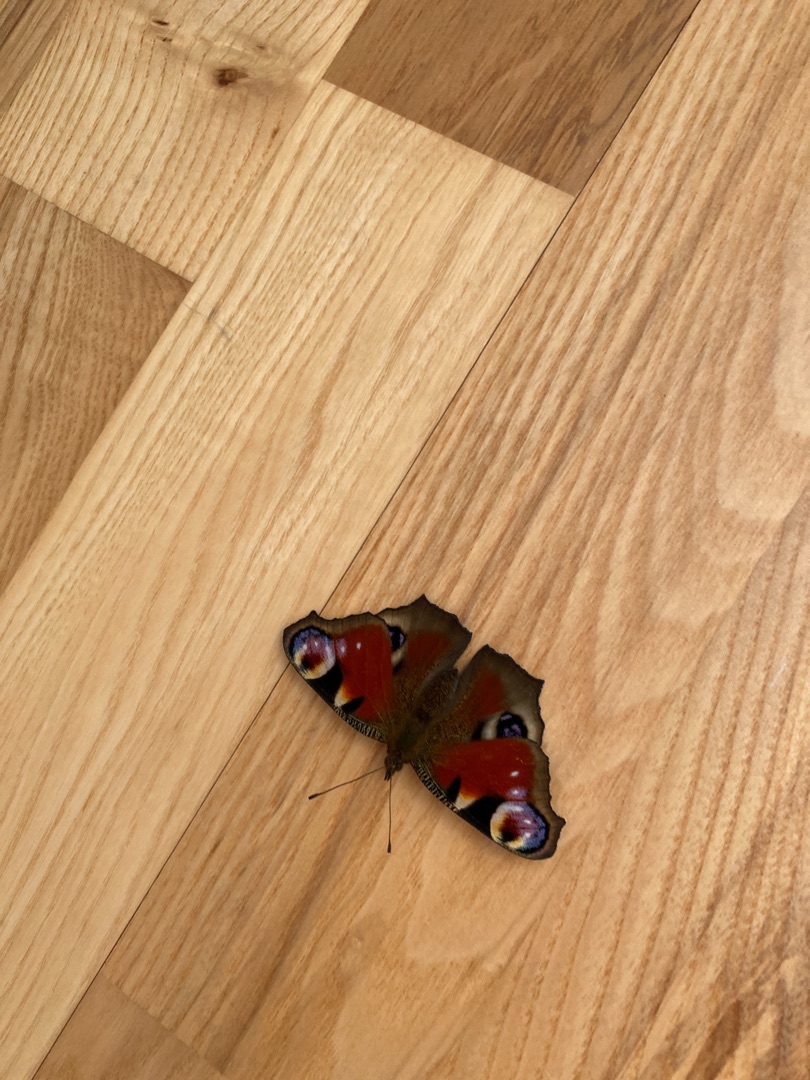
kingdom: Animalia
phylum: Arthropoda
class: Insecta
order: Lepidoptera
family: Nymphalidae
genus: Aglais
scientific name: Aglais io
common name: Dagpåfugleøje
